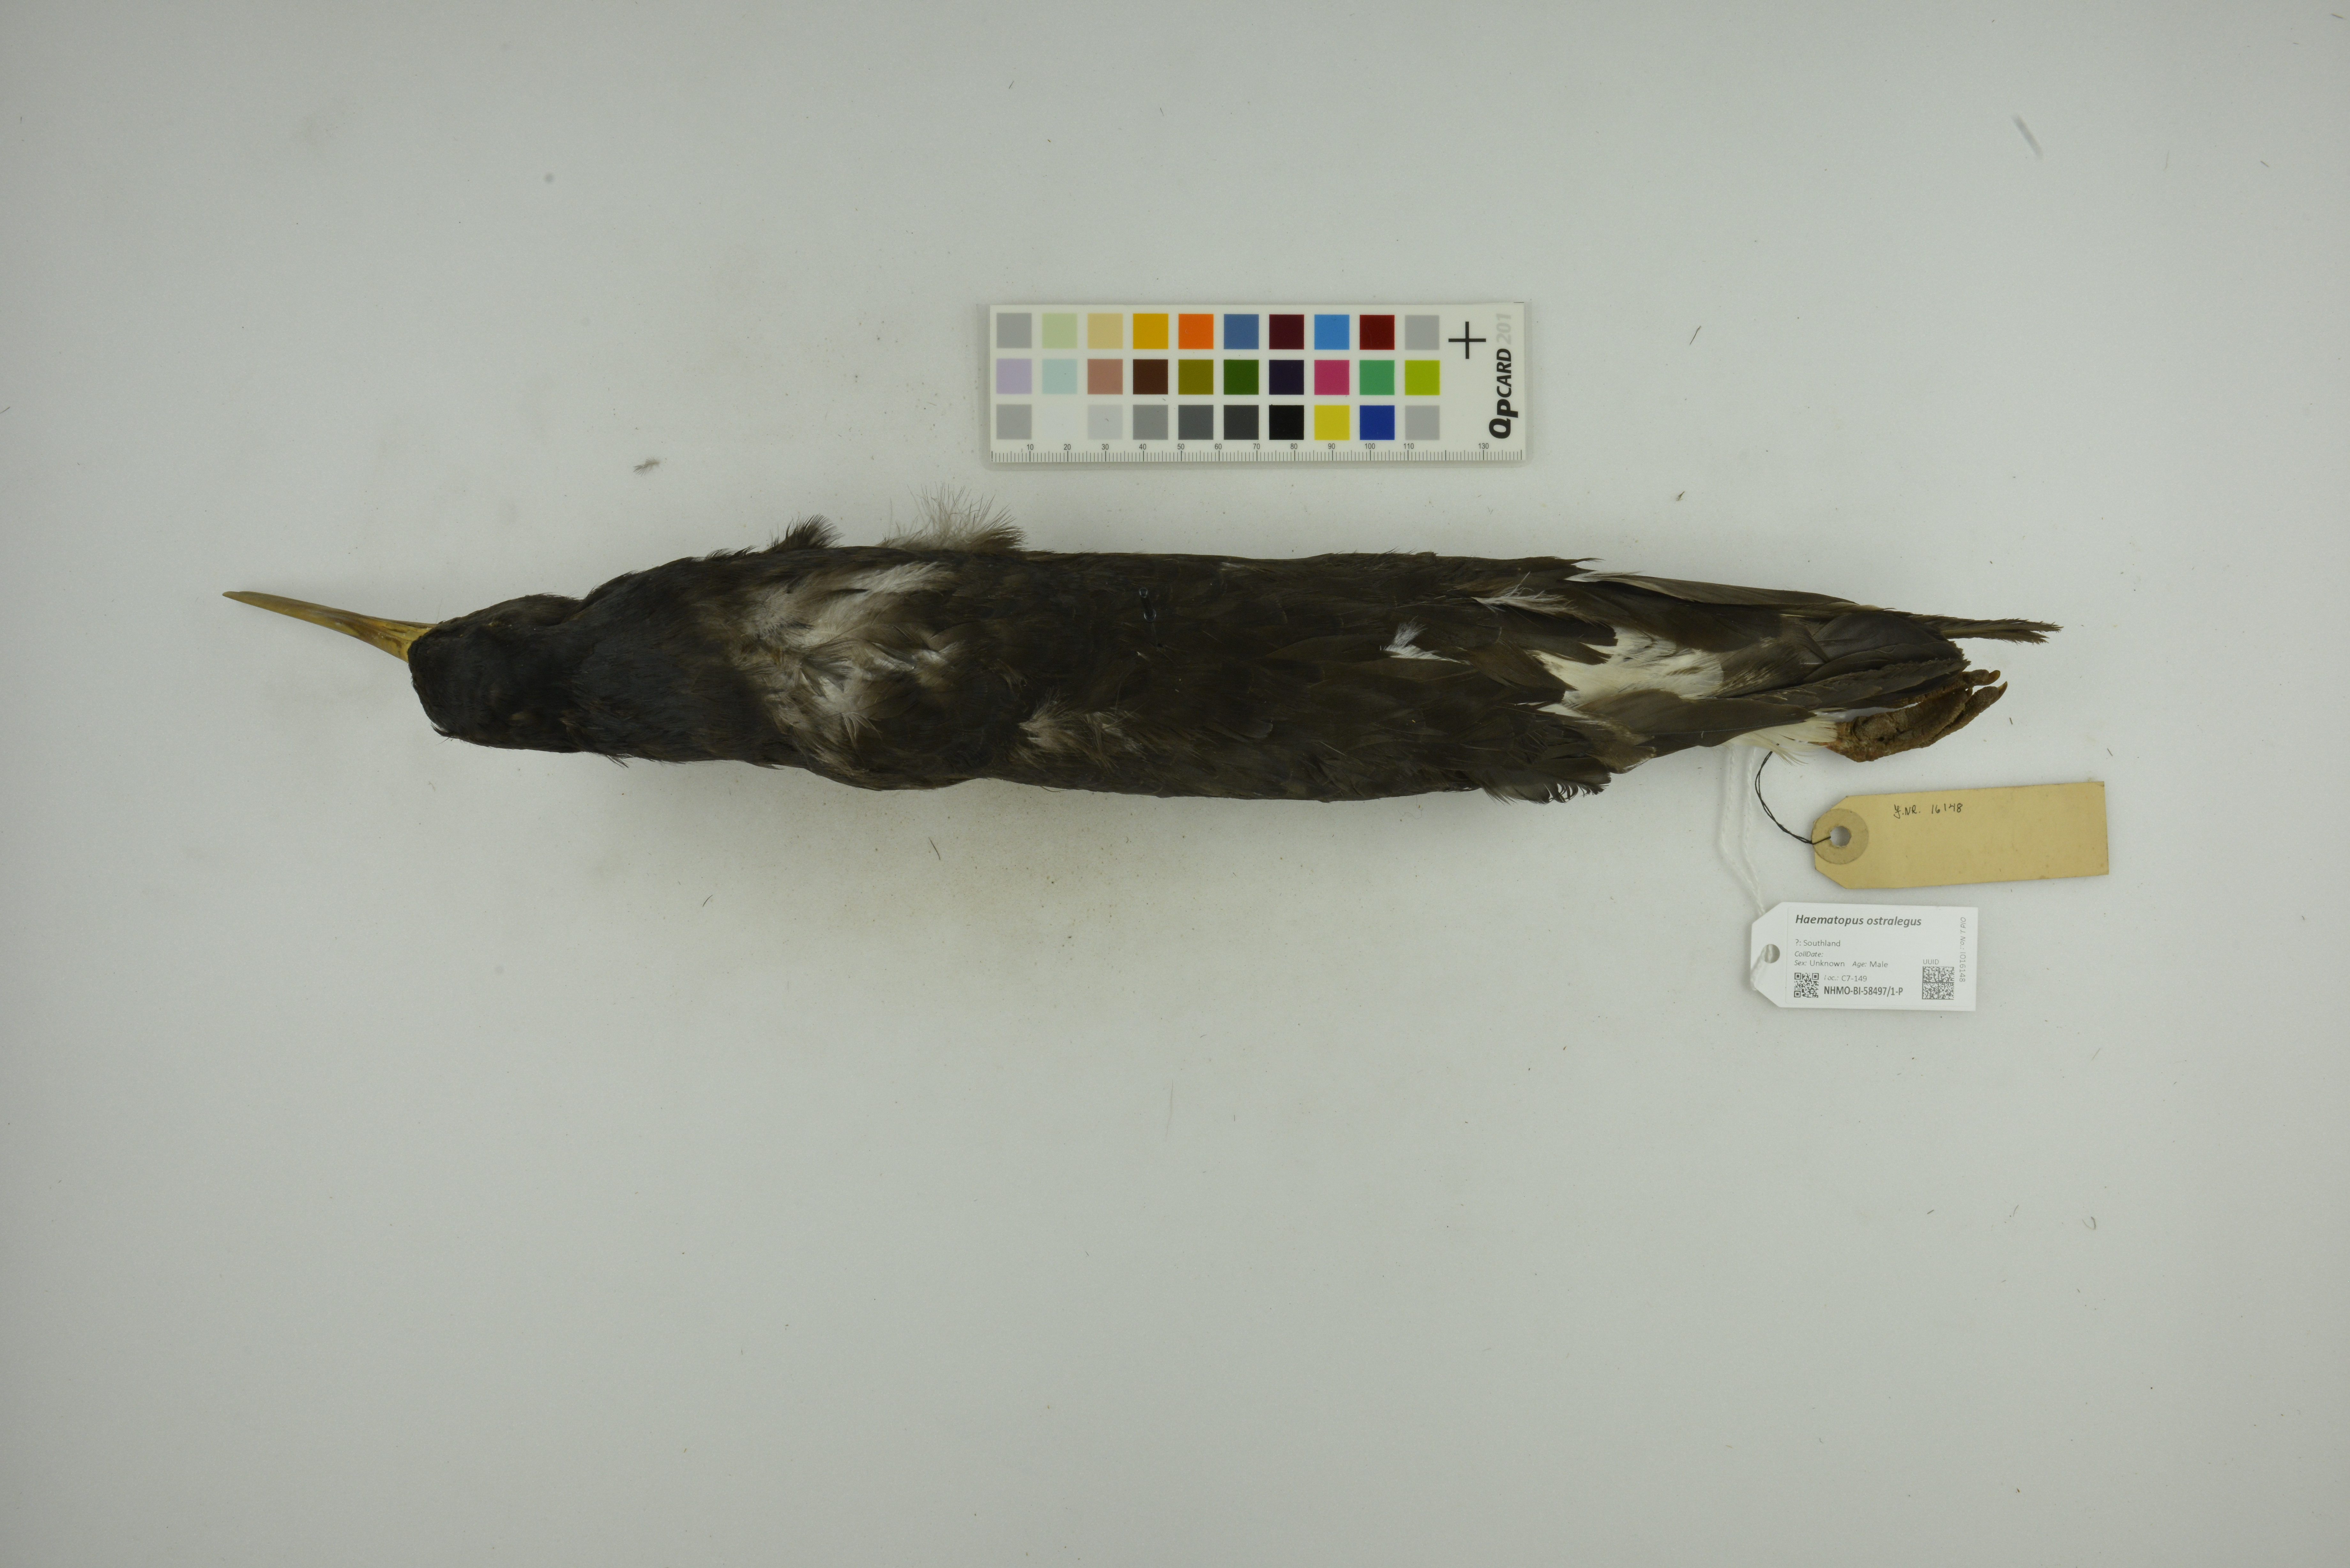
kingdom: Animalia
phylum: Chordata
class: Aves
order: Charadriiformes
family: Haematopodidae
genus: Haematopus
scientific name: Haematopus ostralegus
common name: Eurasian oystercatcher
